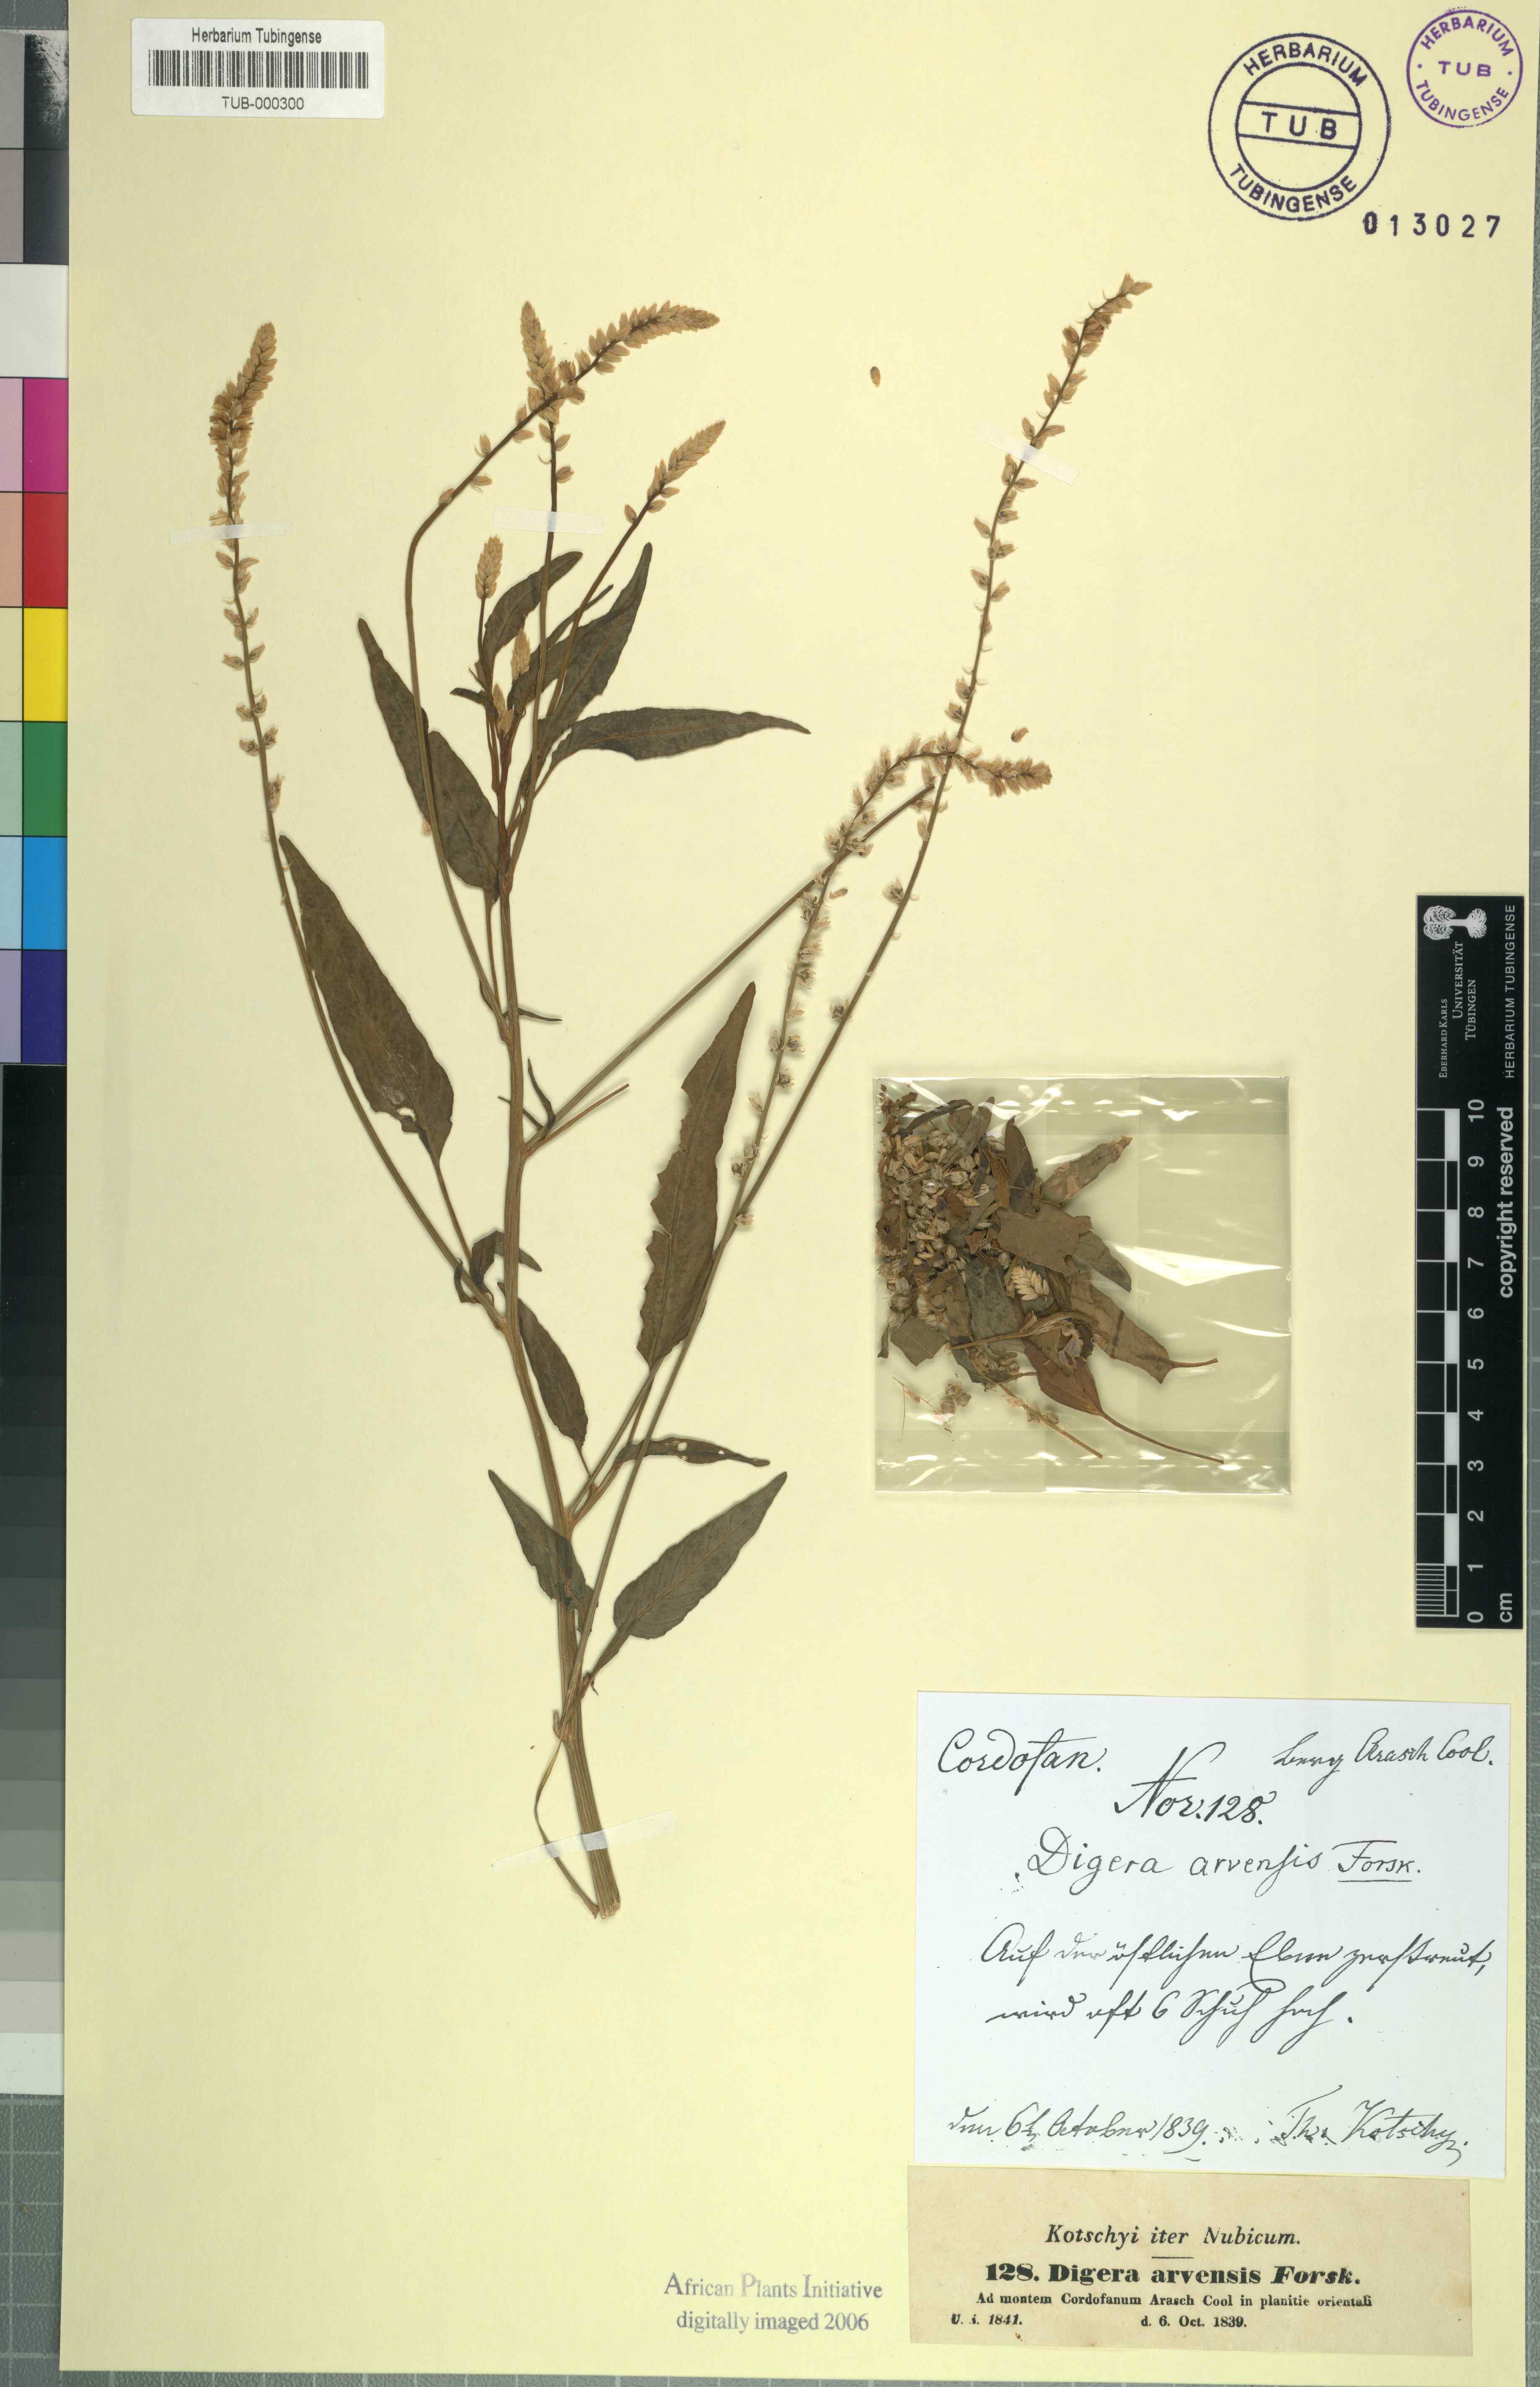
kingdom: Plantae
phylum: Tracheophyta
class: Magnoliopsida
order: Caryophyllales
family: Amaranthaceae
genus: Digera
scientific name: Digera muricata
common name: False amaranth
